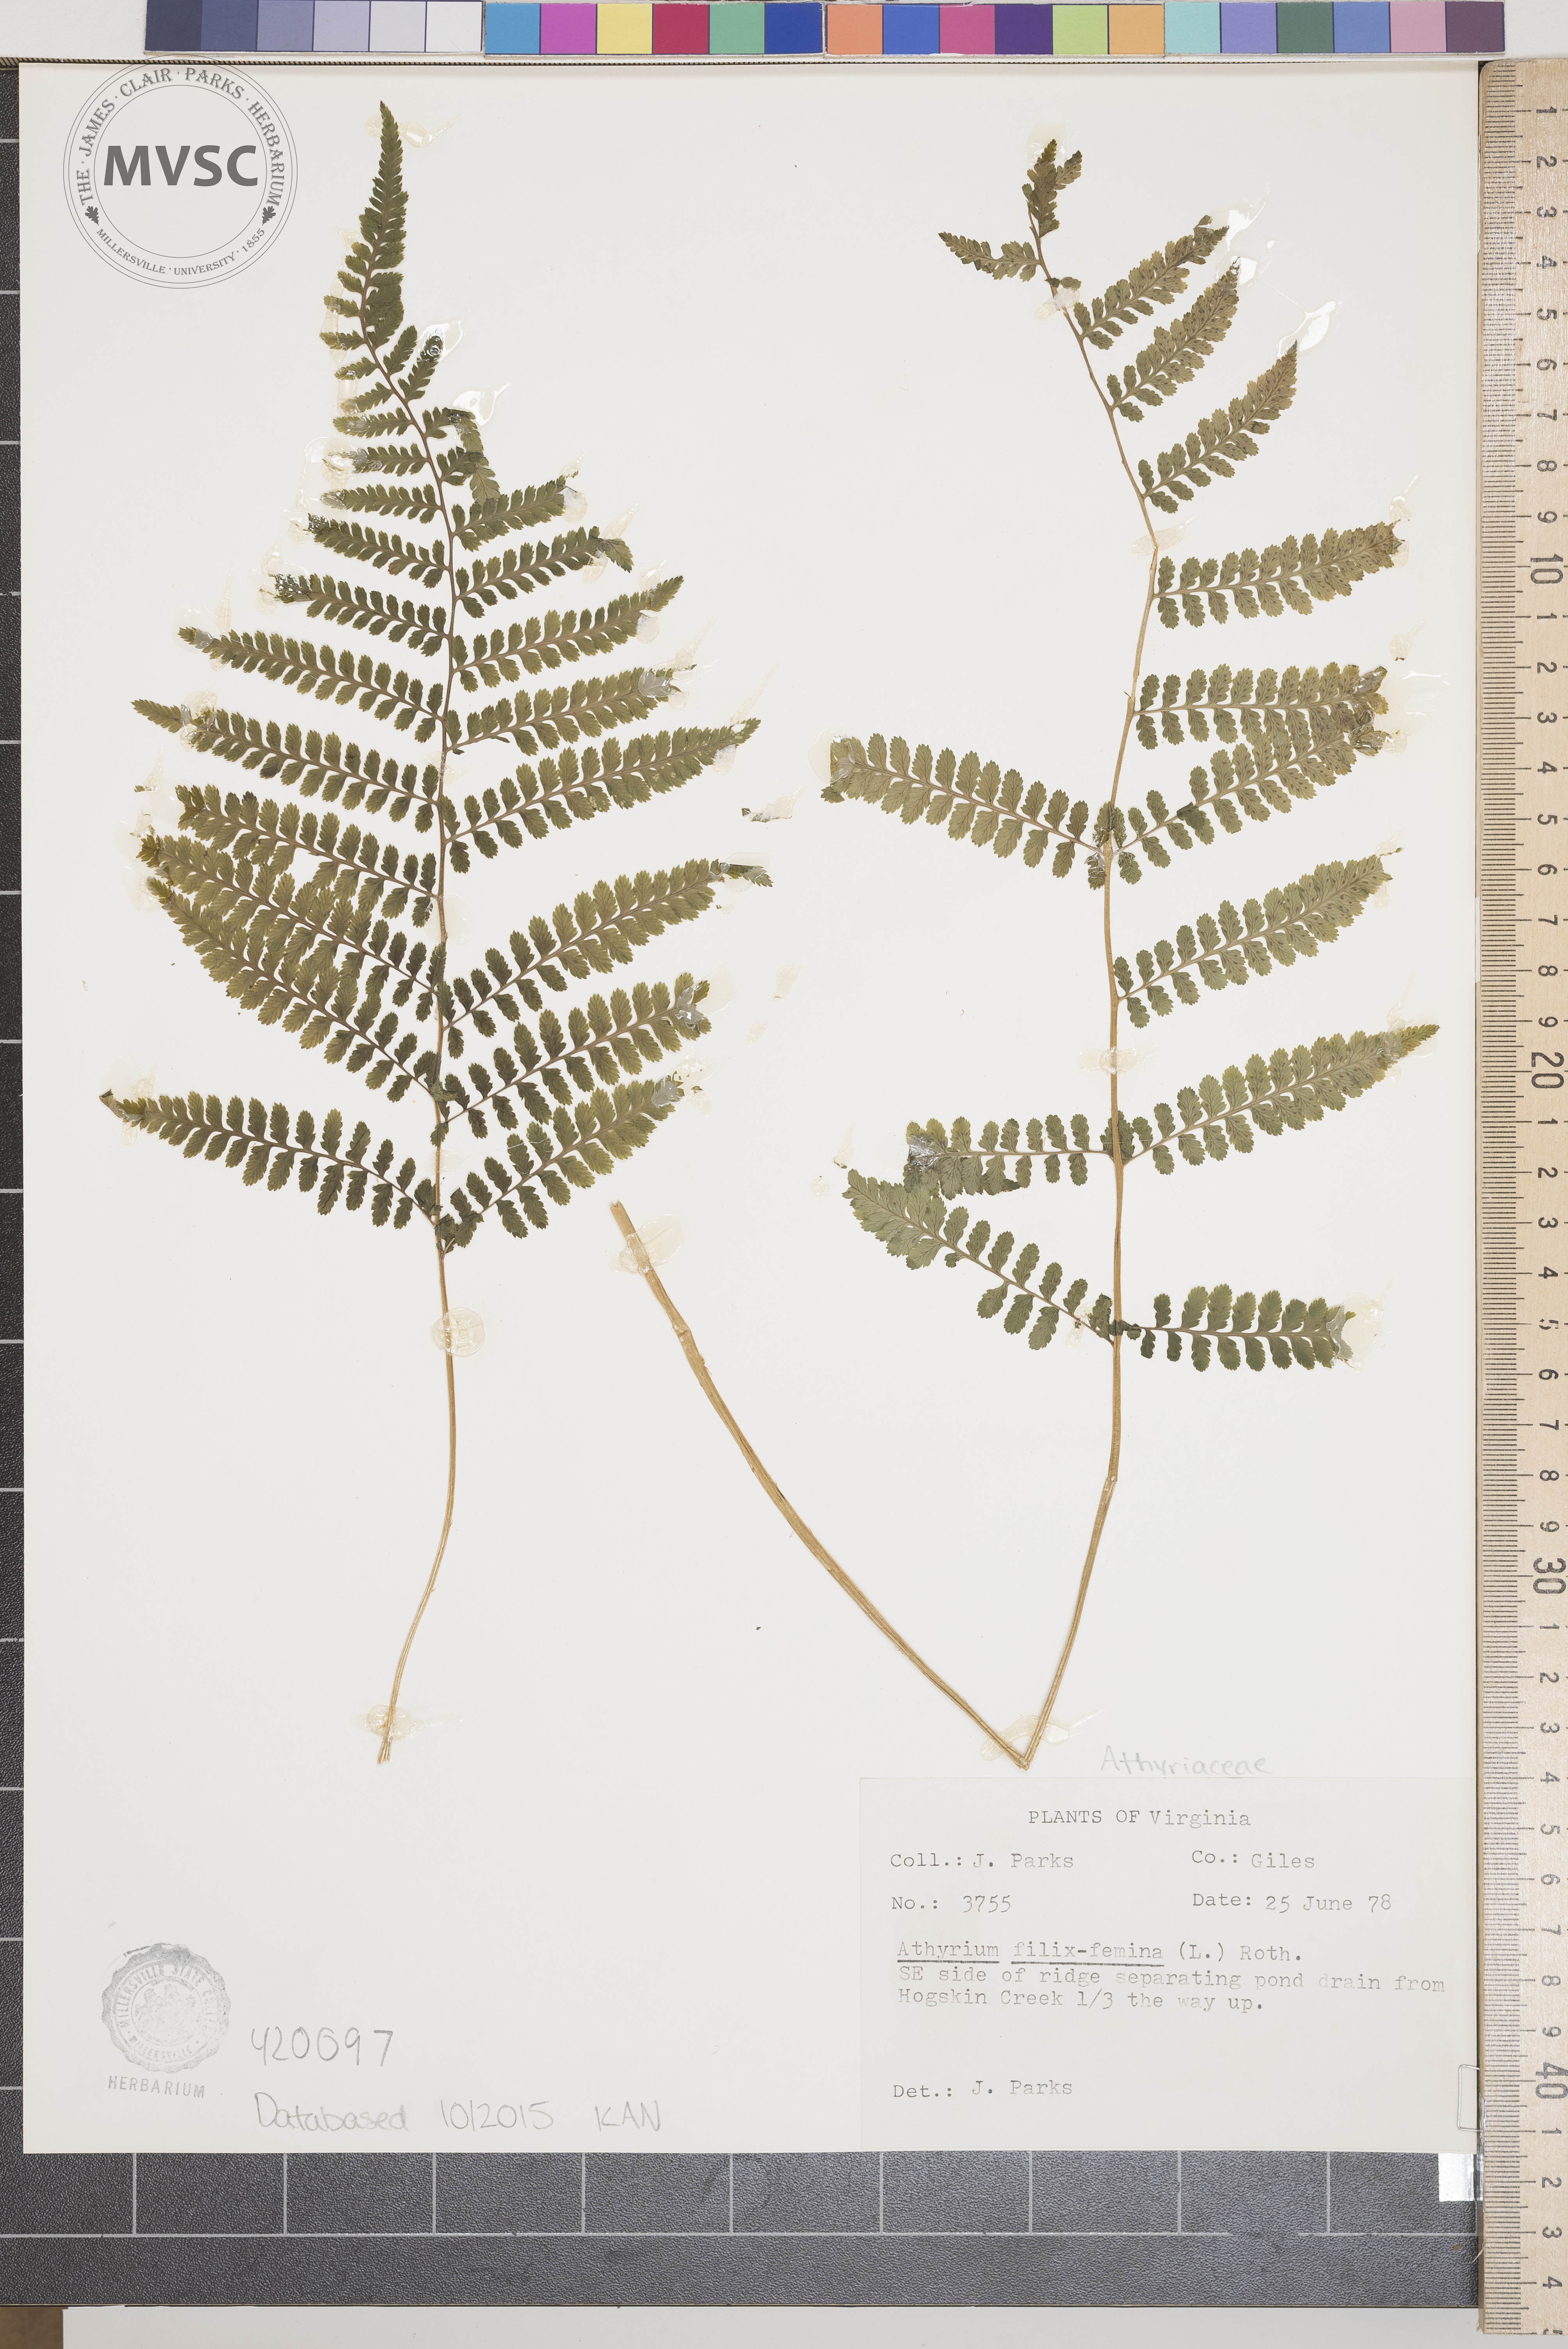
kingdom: Plantae
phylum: Tracheophyta
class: Polypodiopsida
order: Polypodiales
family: Athyriaceae
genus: Athyrium
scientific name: Athyrium filix-femina
